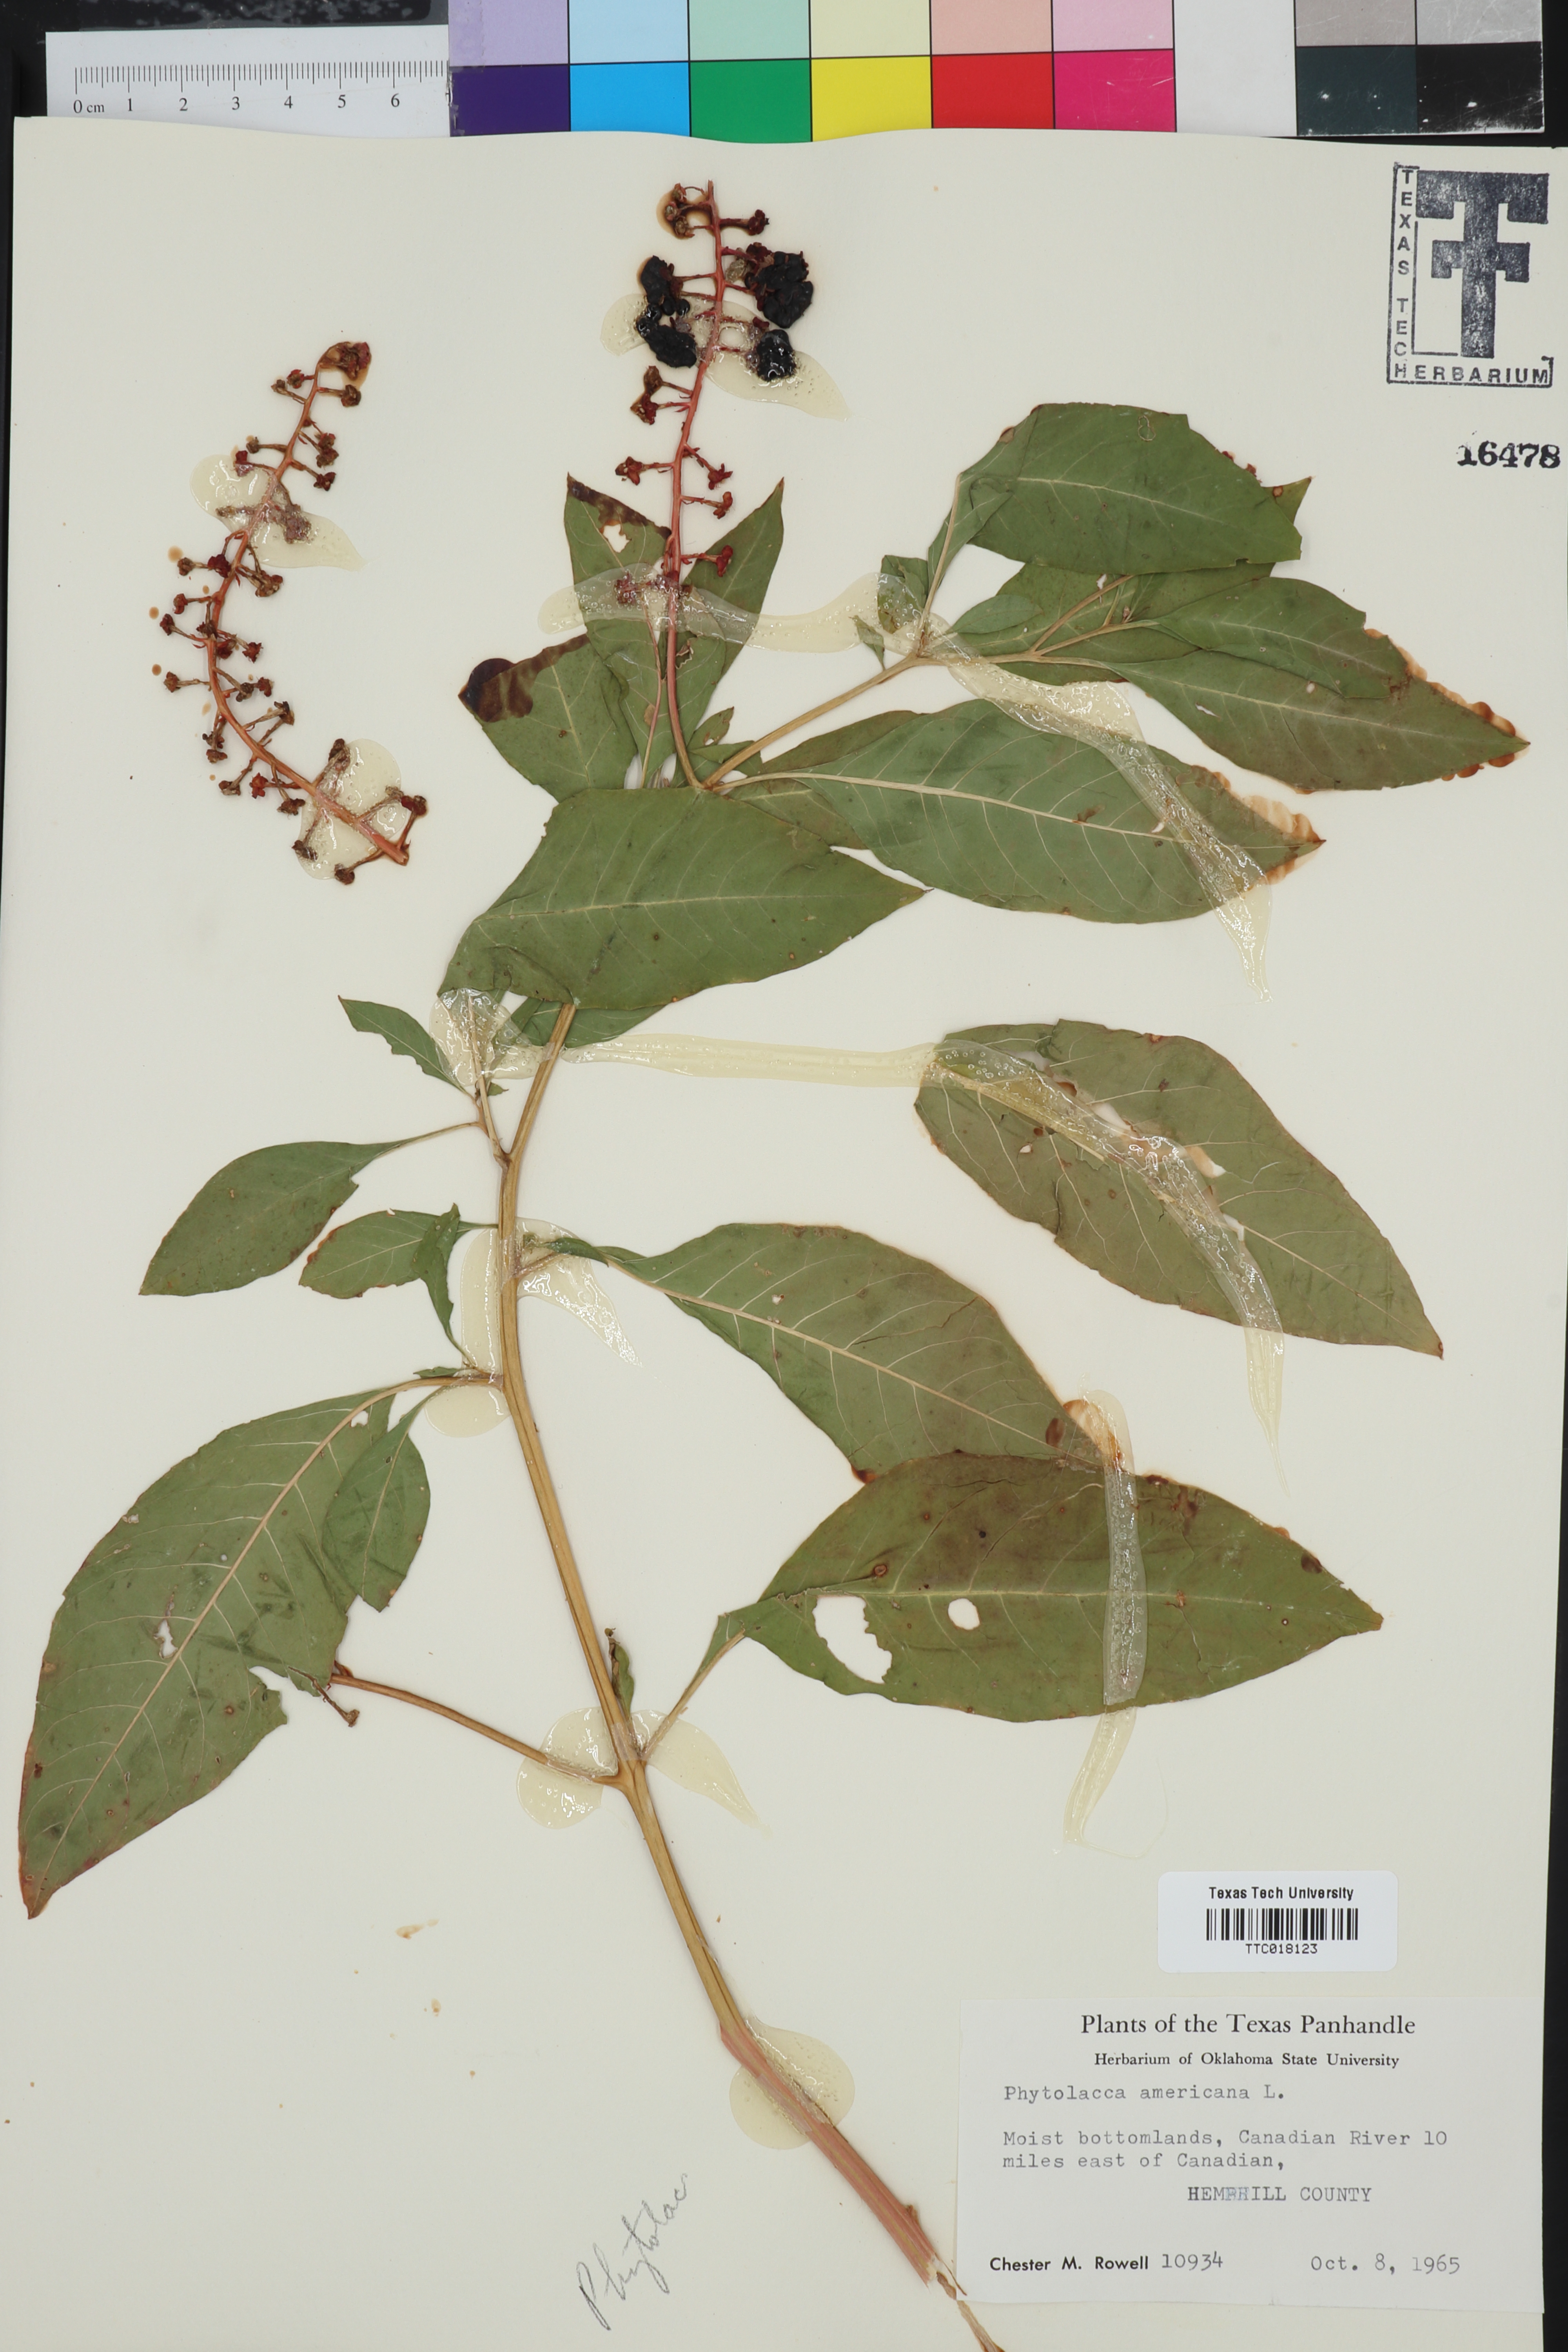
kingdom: Plantae
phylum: Tracheophyta
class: Magnoliopsida
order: Caryophyllales
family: Phytolaccaceae
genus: Phytolacca
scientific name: Phytolacca americana
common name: American pokeweed
